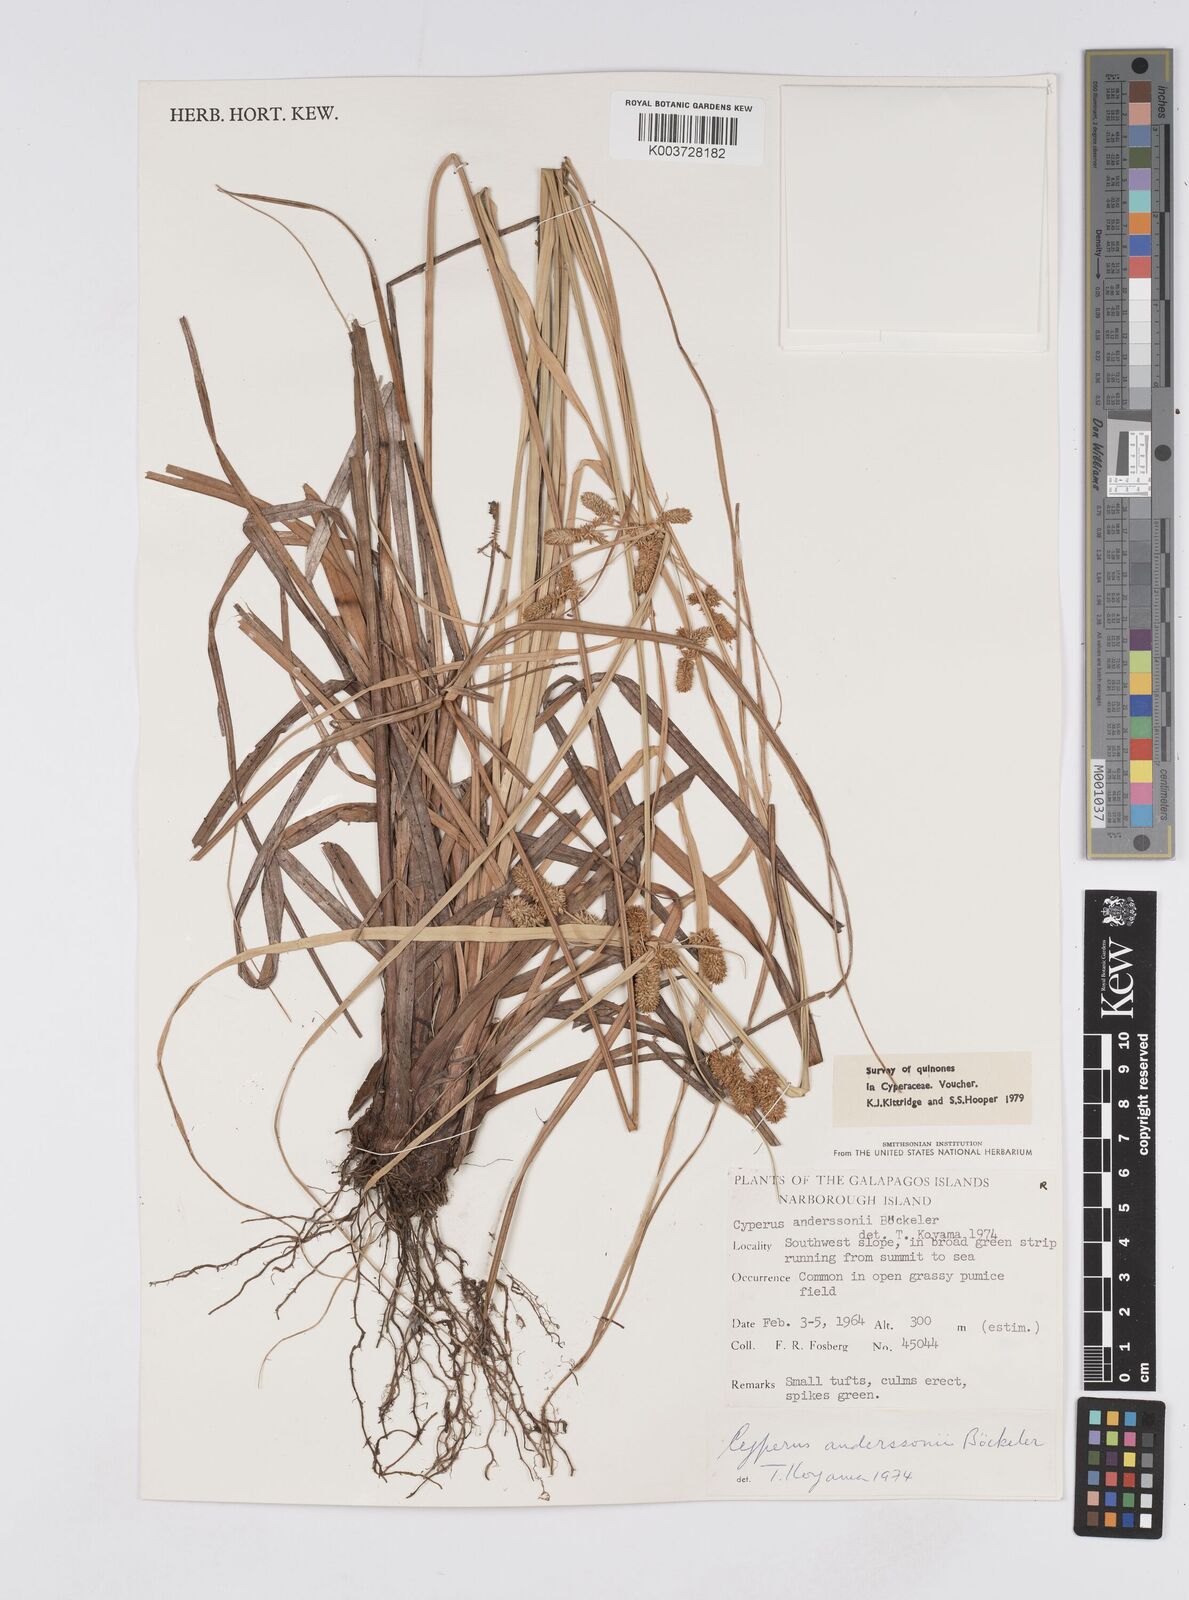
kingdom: Plantae
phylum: Tracheophyta
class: Liliopsida
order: Poales
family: Cyperaceae
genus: Cyperus
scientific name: Cyperus anderssonii
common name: Andersson's sedge
